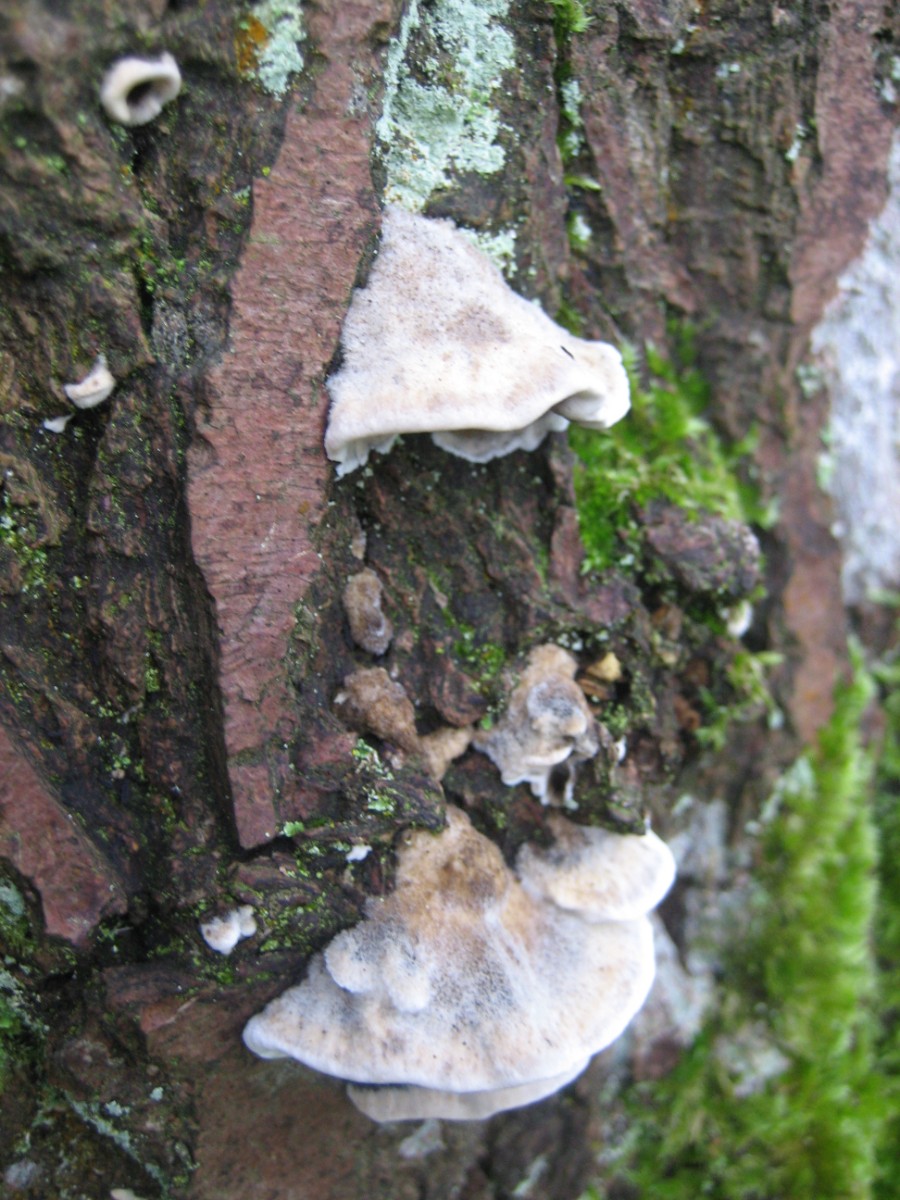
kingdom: Fungi
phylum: Basidiomycota
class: Agaricomycetes
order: Polyporales
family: Phanerochaetaceae
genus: Bjerkandera
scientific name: Bjerkandera adusta
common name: sveden sodporesvamp
